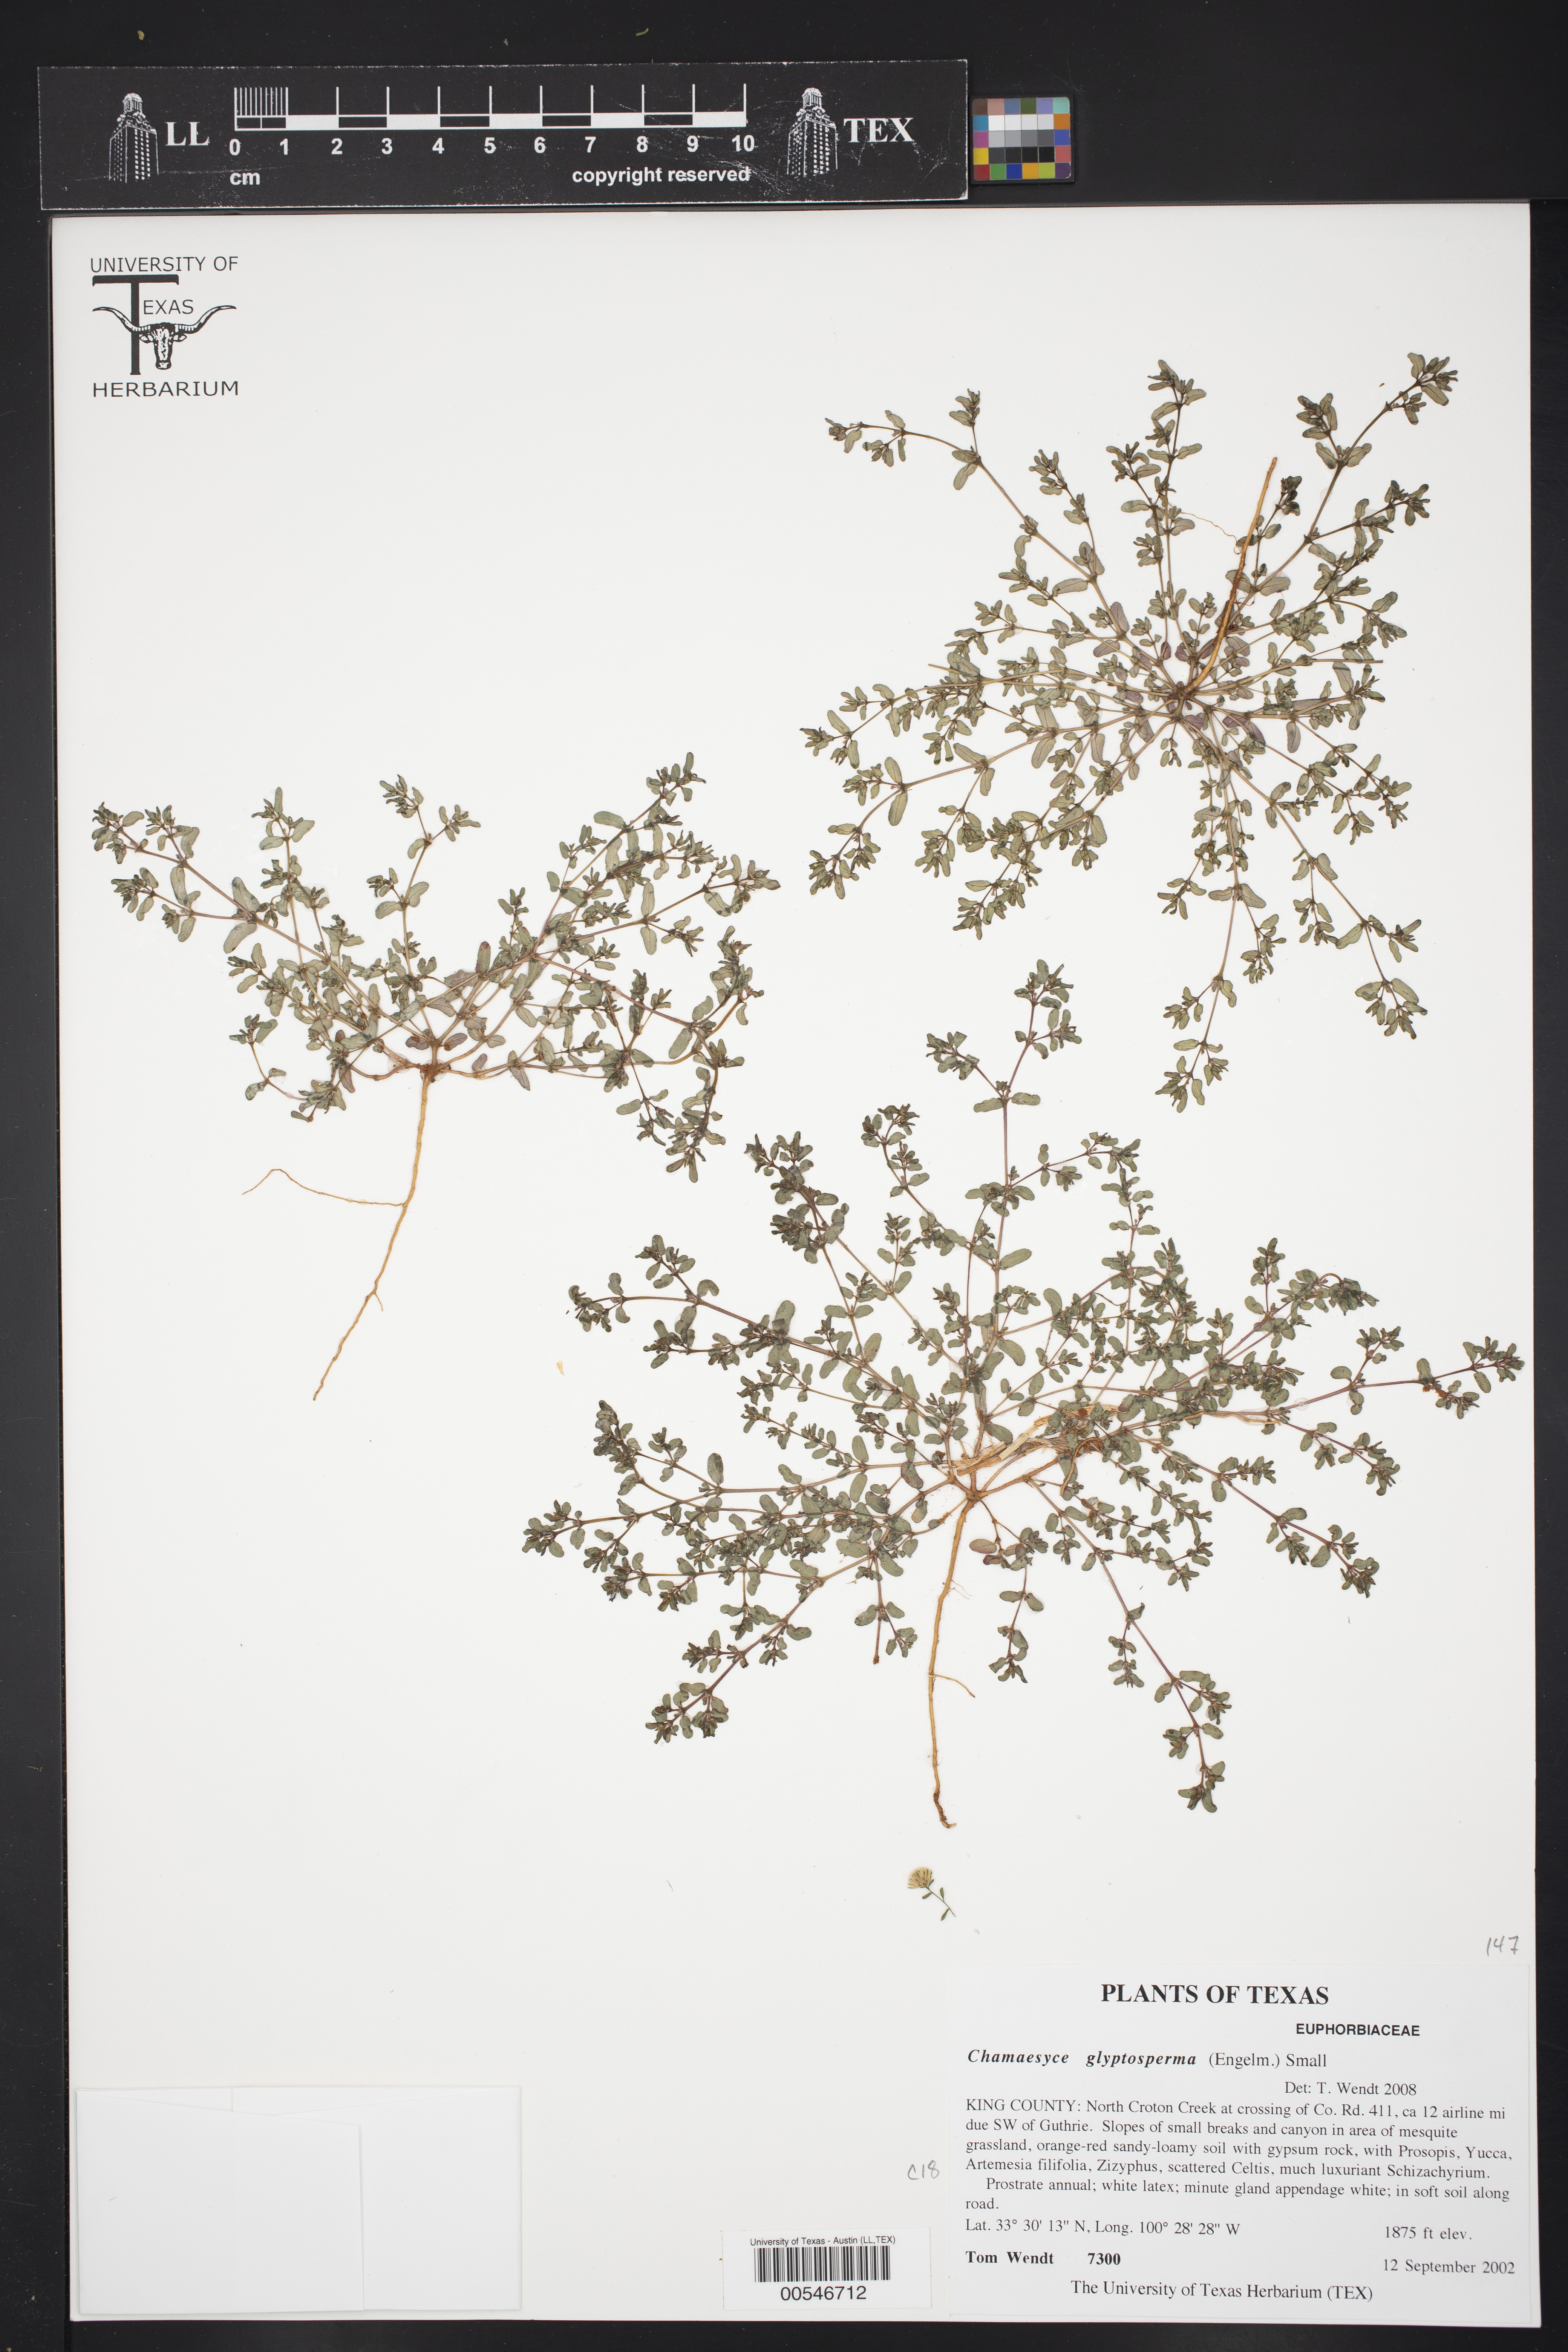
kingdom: Plantae
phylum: Tracheophyta
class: Magnoliopsida
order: Malpighiales
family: Euphorbiaceae
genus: Euphorbia
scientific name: Euphorbia glyptosperma
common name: Corrugate-seeded spurge
